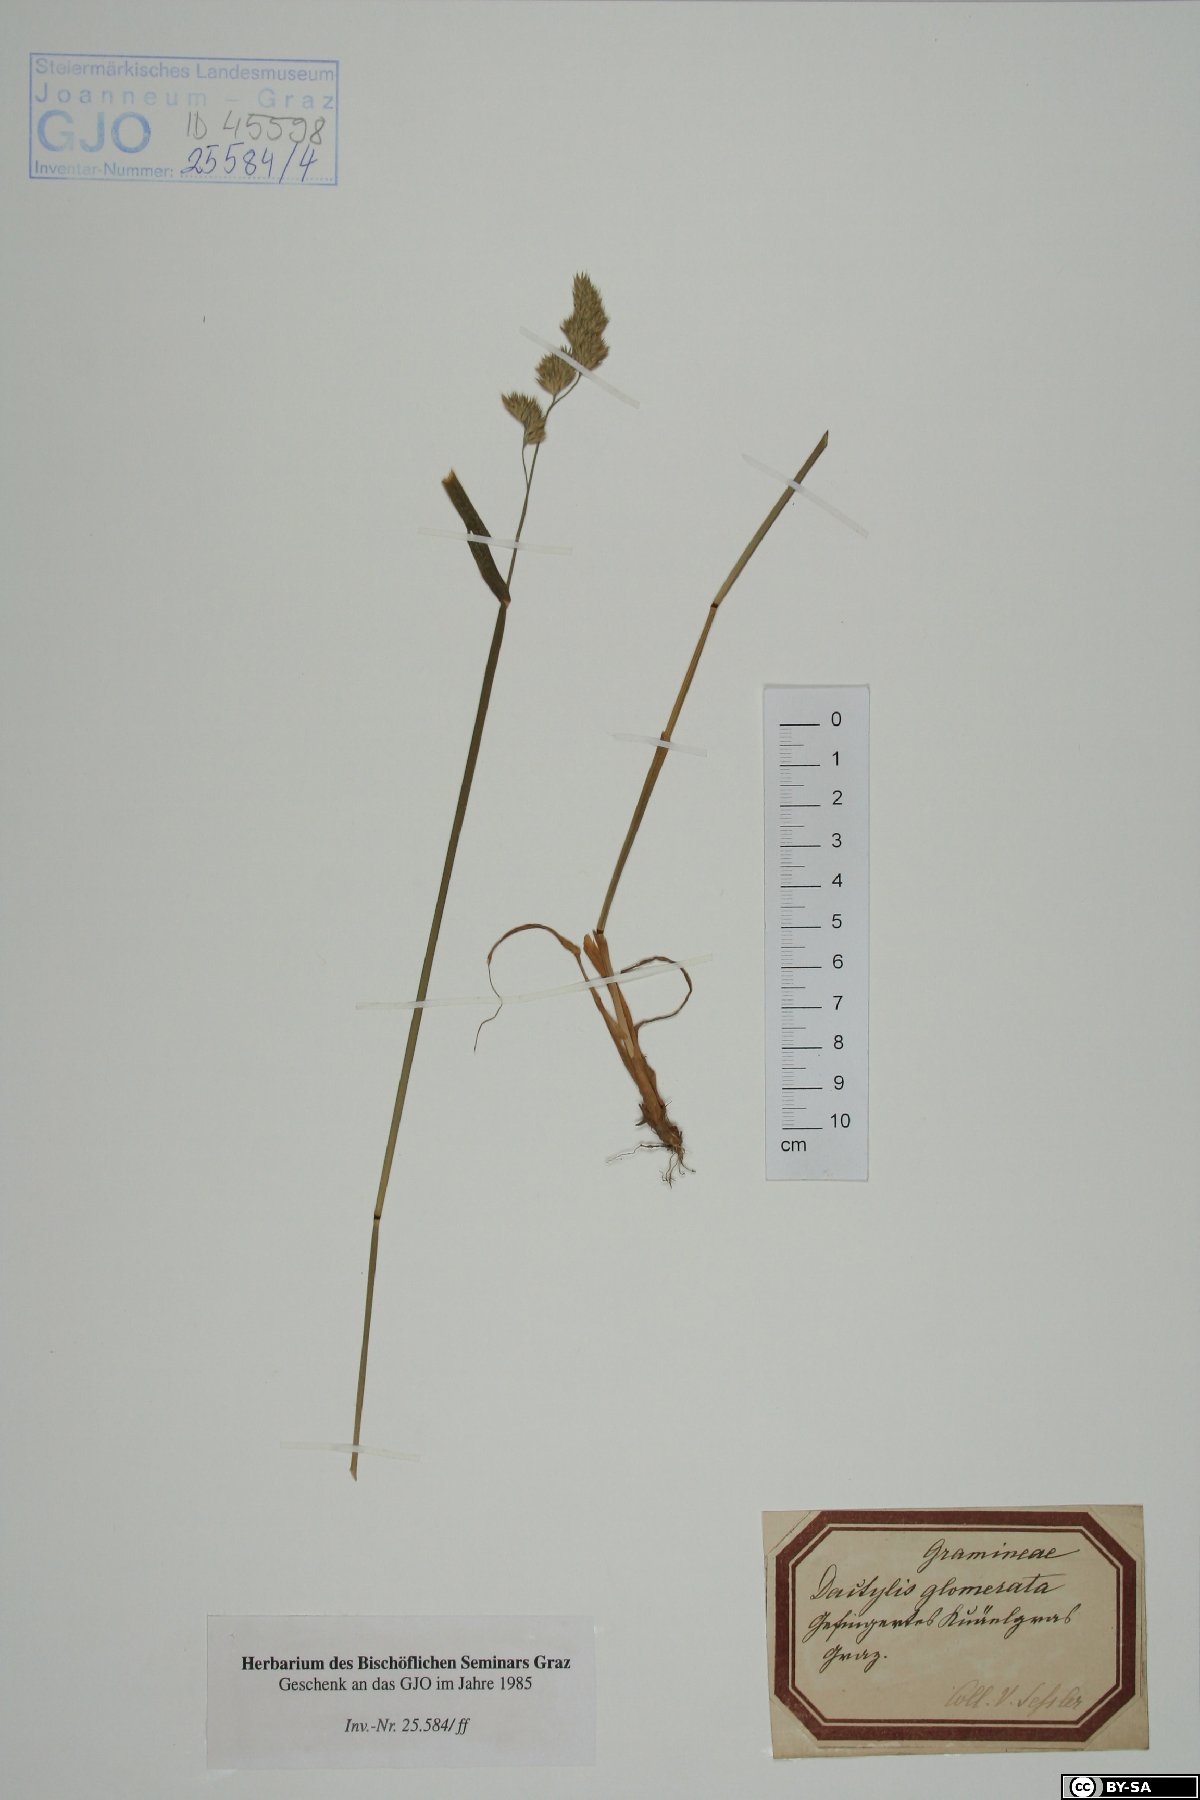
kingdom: Plantae
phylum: Tracheophyta
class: Liliopsida
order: Poales
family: Poaceae
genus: Dactylis
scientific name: Dactylis glomerata
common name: Orchardgrass
